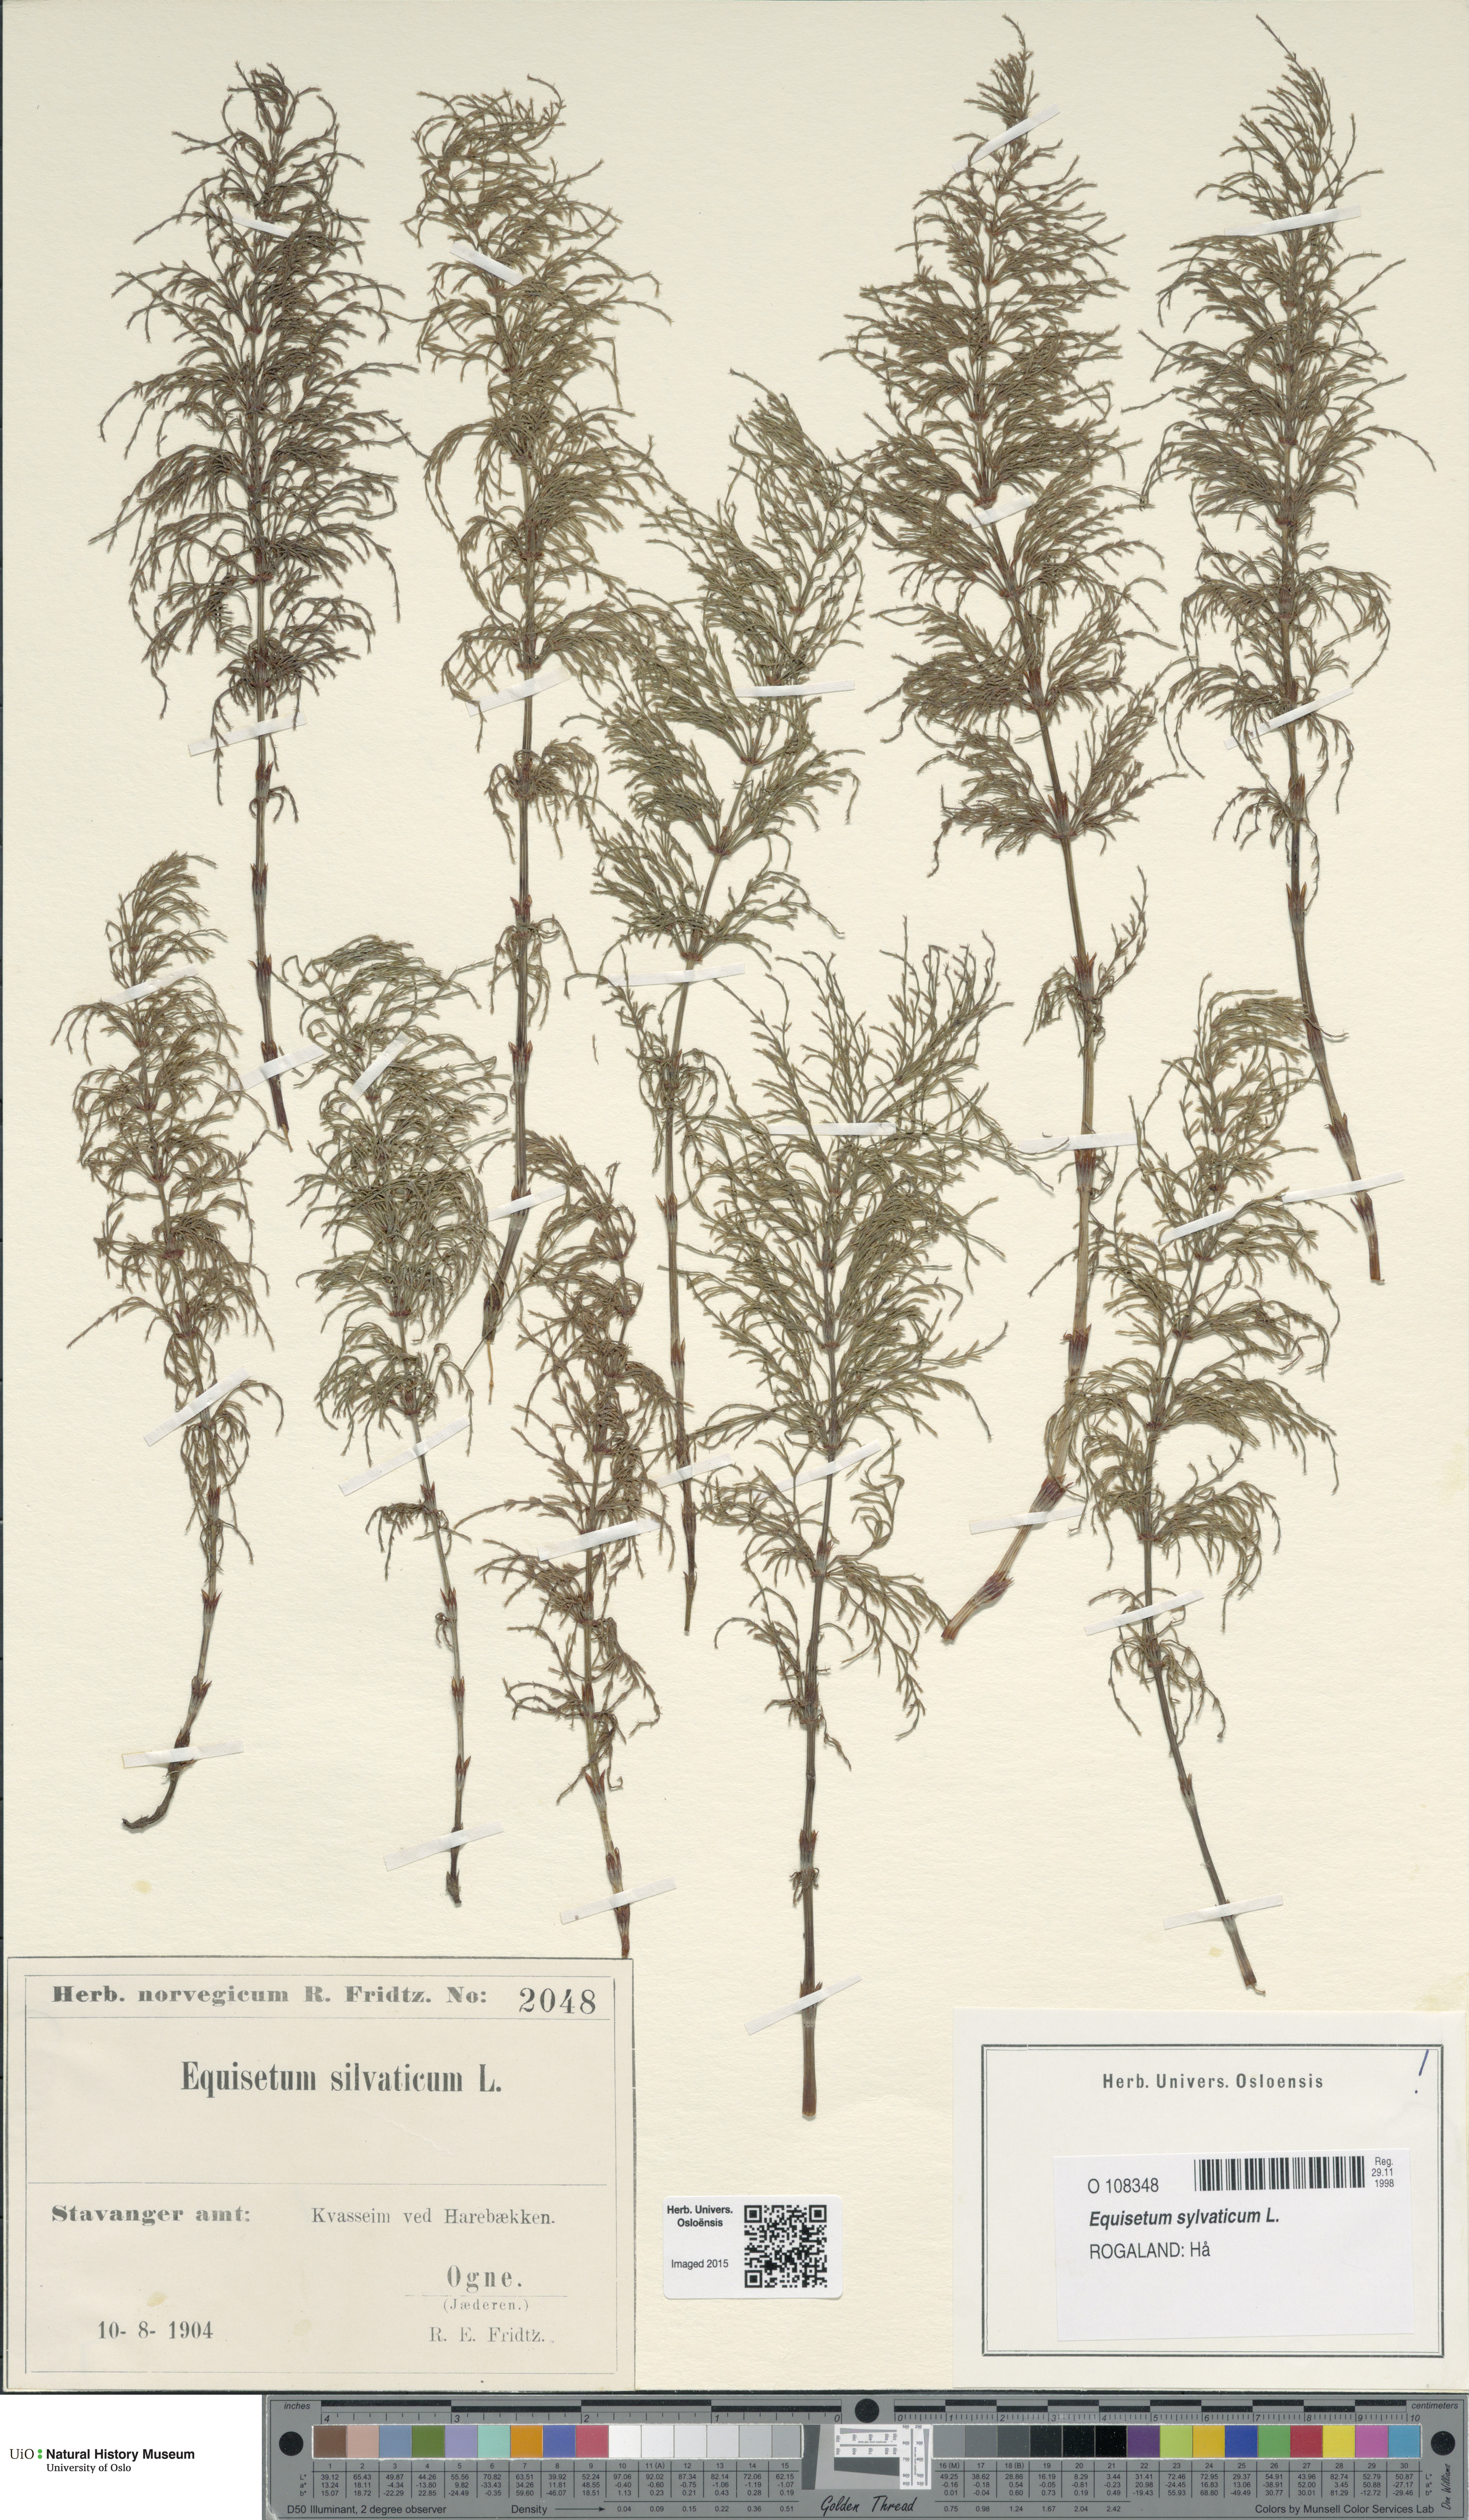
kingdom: Plantae
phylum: Tracheophyta
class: Polypodiopsida
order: Equisetales
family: Equisetaceae
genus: Equisetum
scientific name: Equisetum sylvaticum
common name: Wood horsetail
